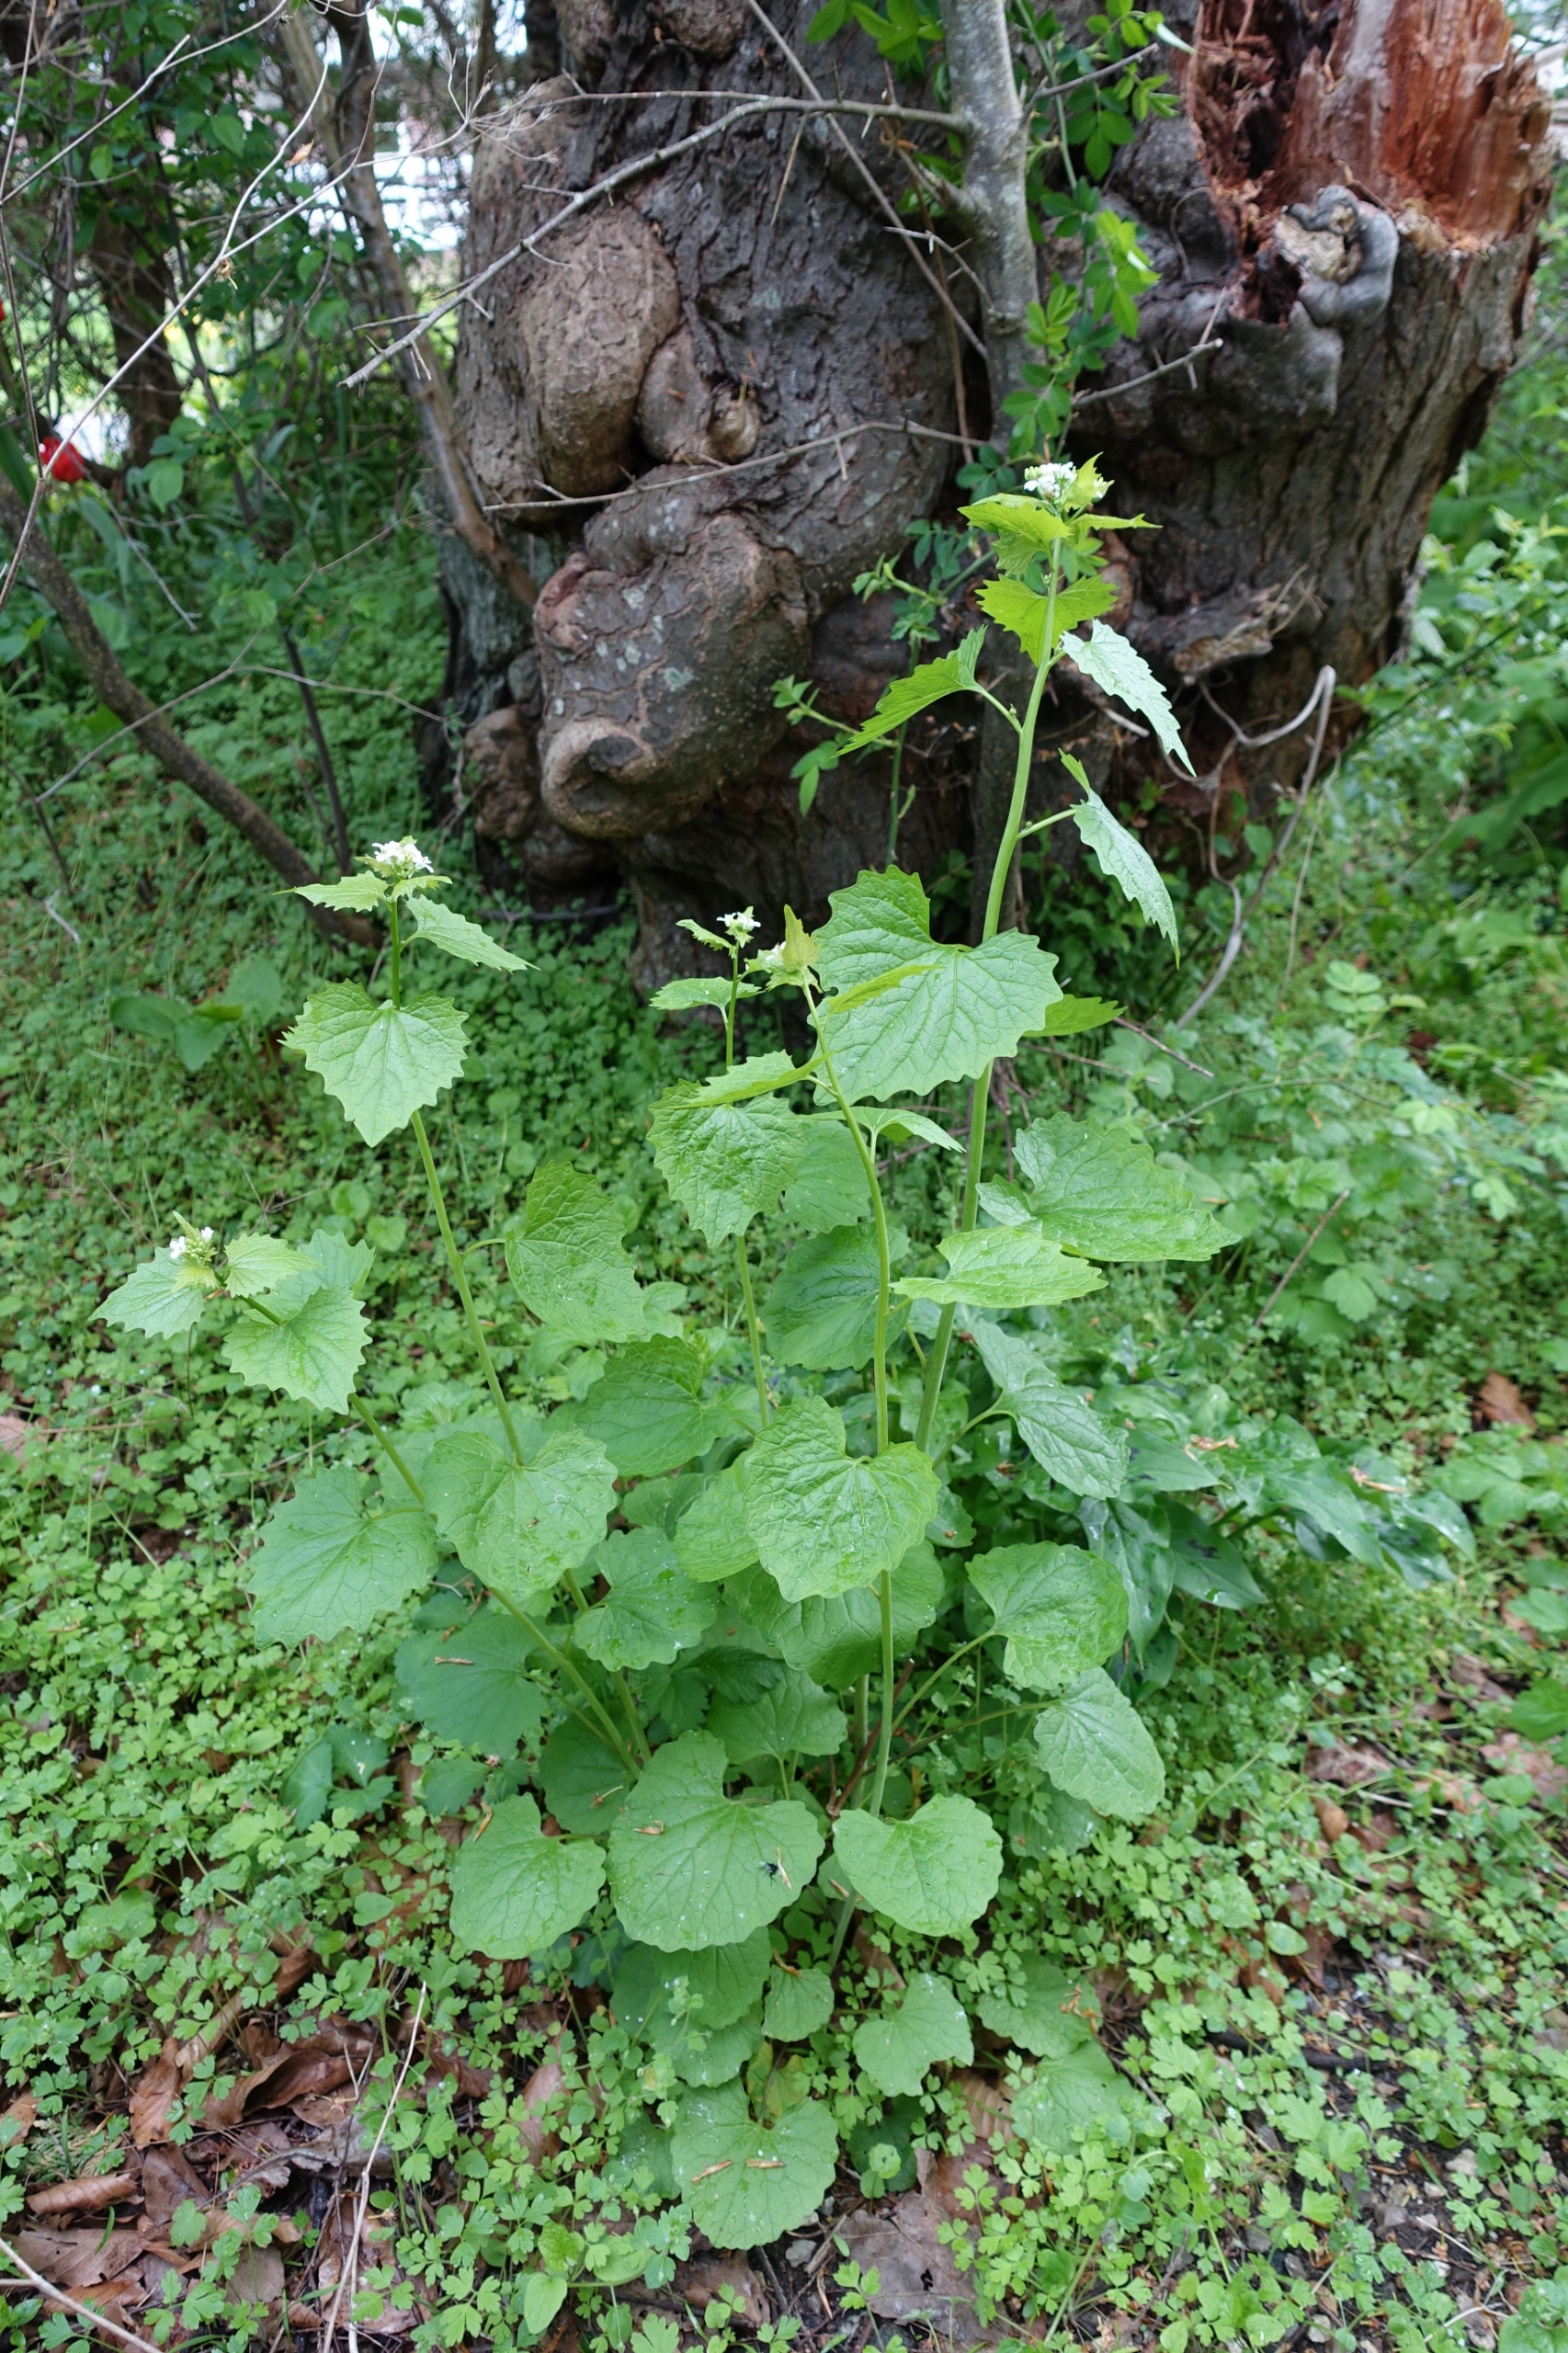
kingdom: Plantae
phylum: Tracheophyta
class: Magnoliopsida
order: Brassicales
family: Brassicaceae
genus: Alliaria
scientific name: Alliaria petiolata
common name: Løgkarse
